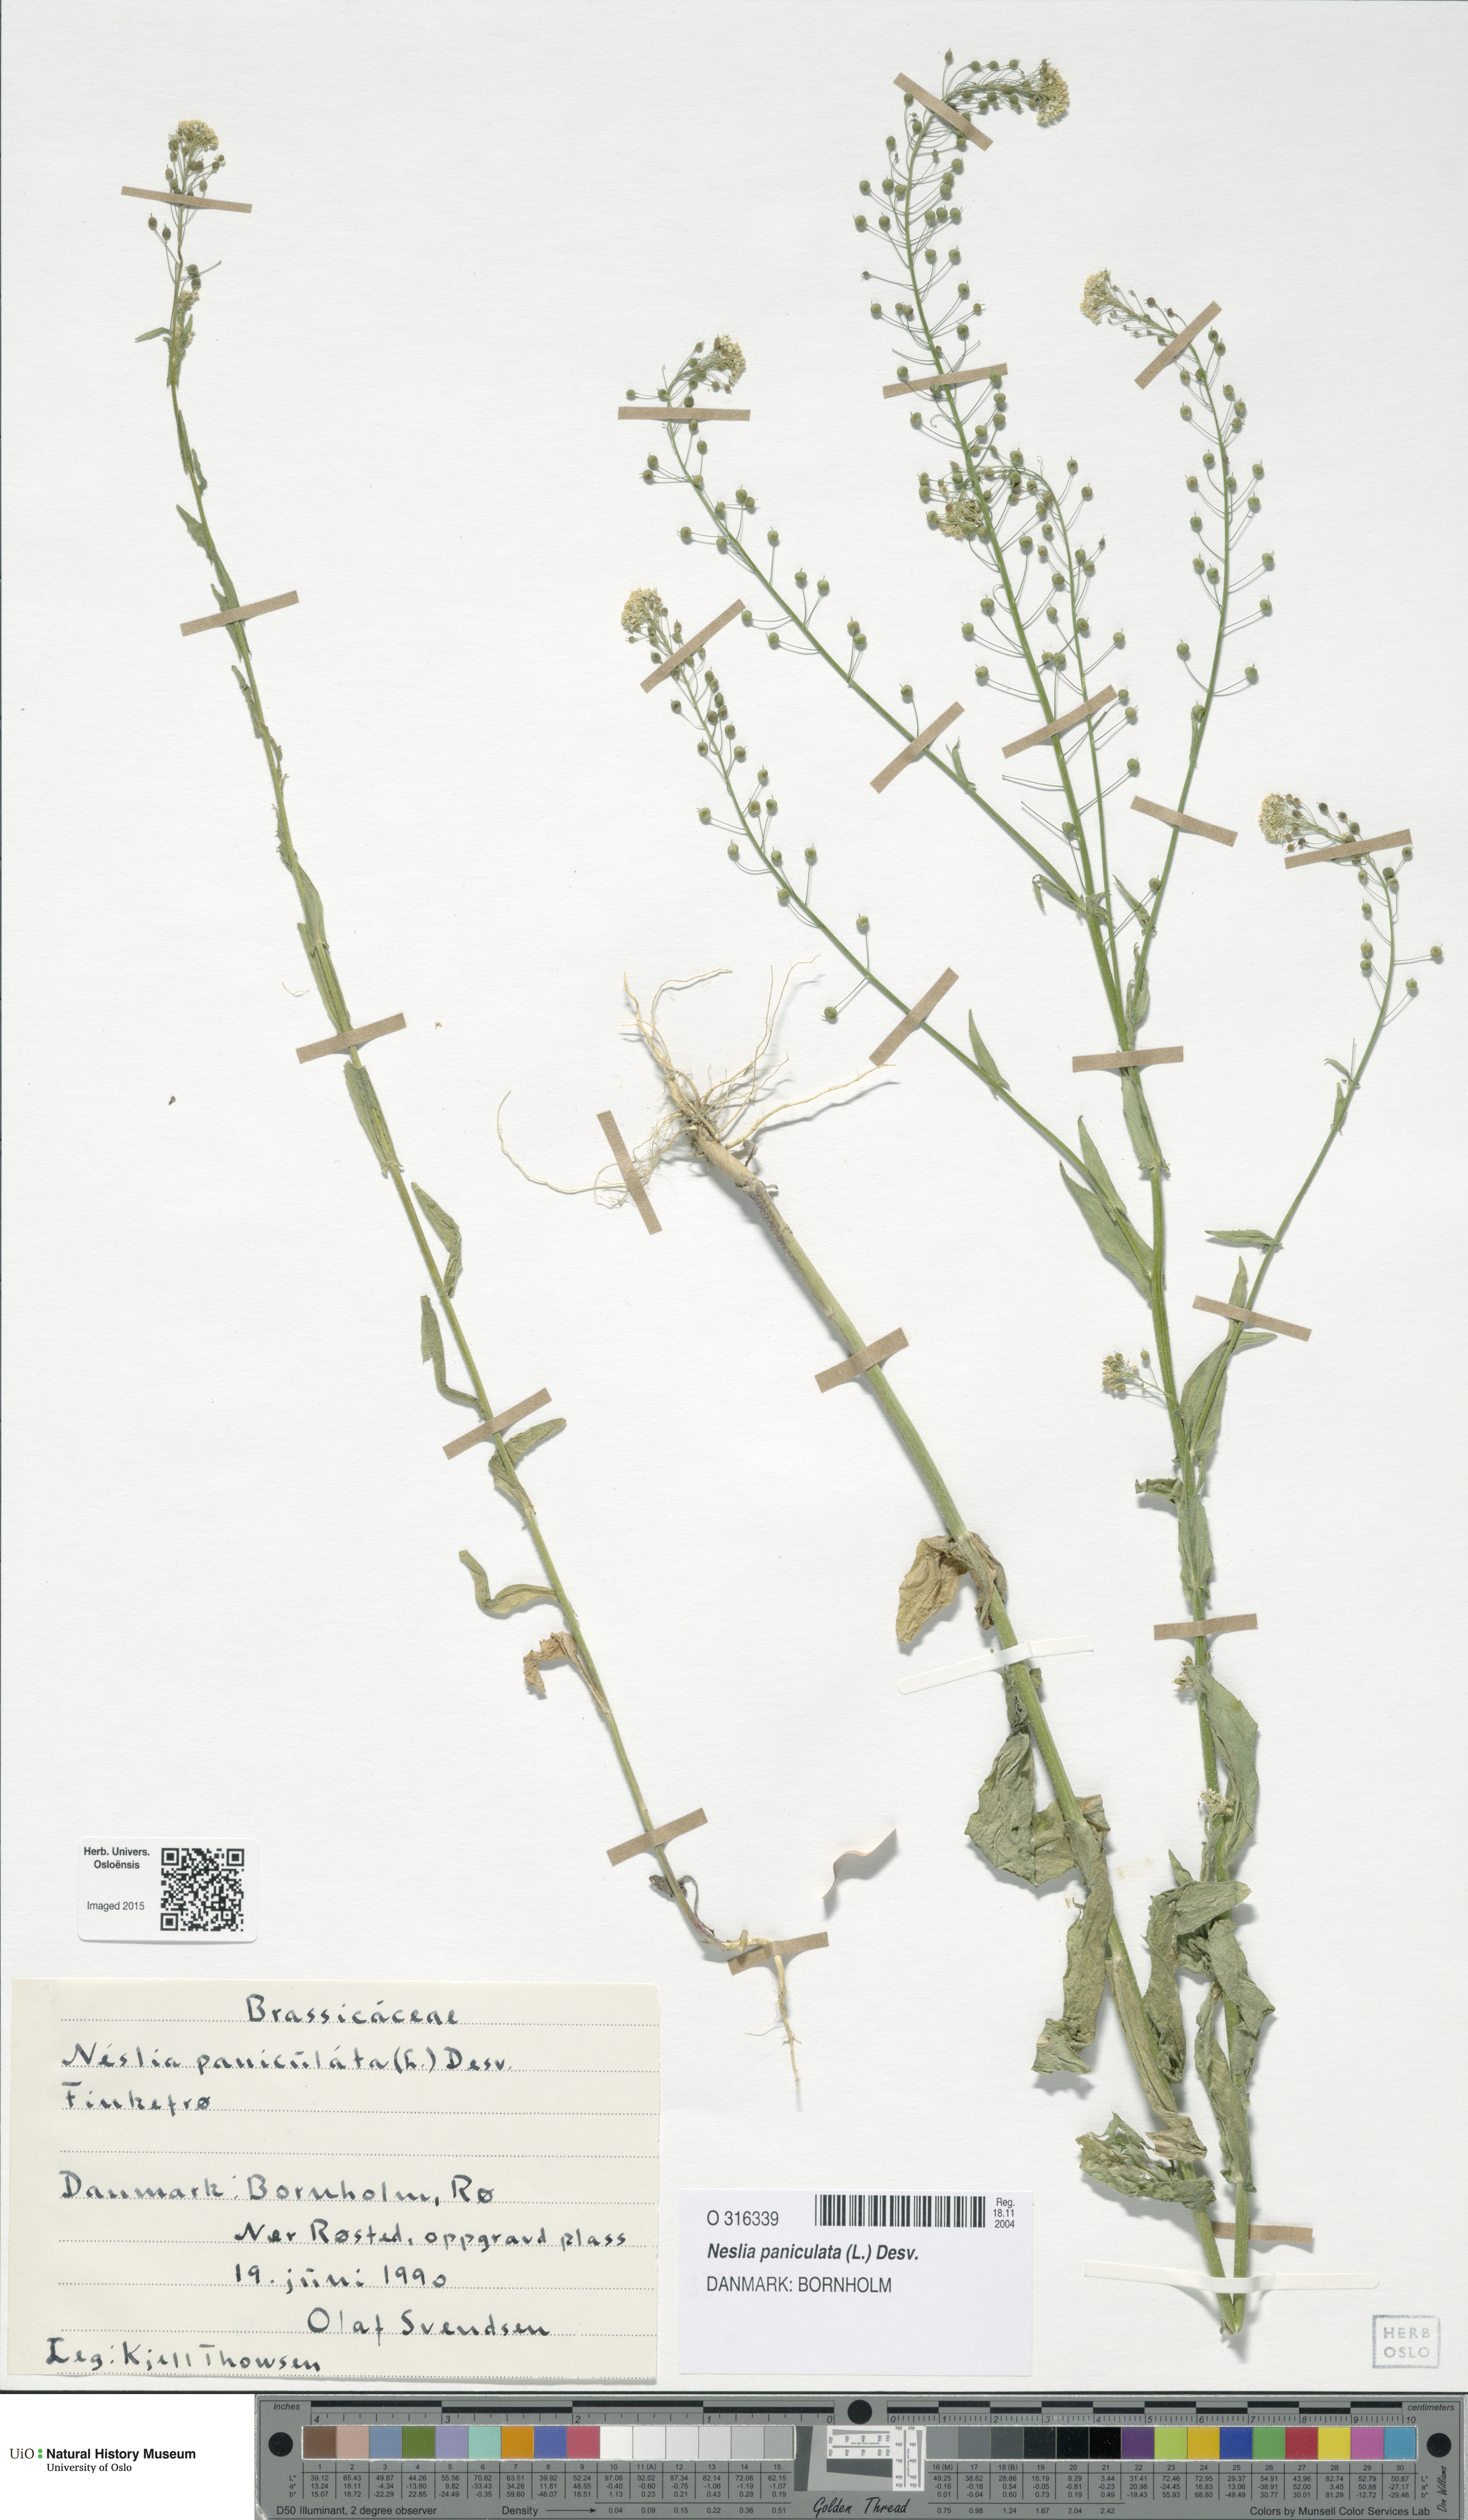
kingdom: Plantae
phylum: Tracheophyta
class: Magnoliopsida
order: Brassicales
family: Brassicaceae
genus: Neslia
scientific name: Neslia paniculata
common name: Ball mustard
